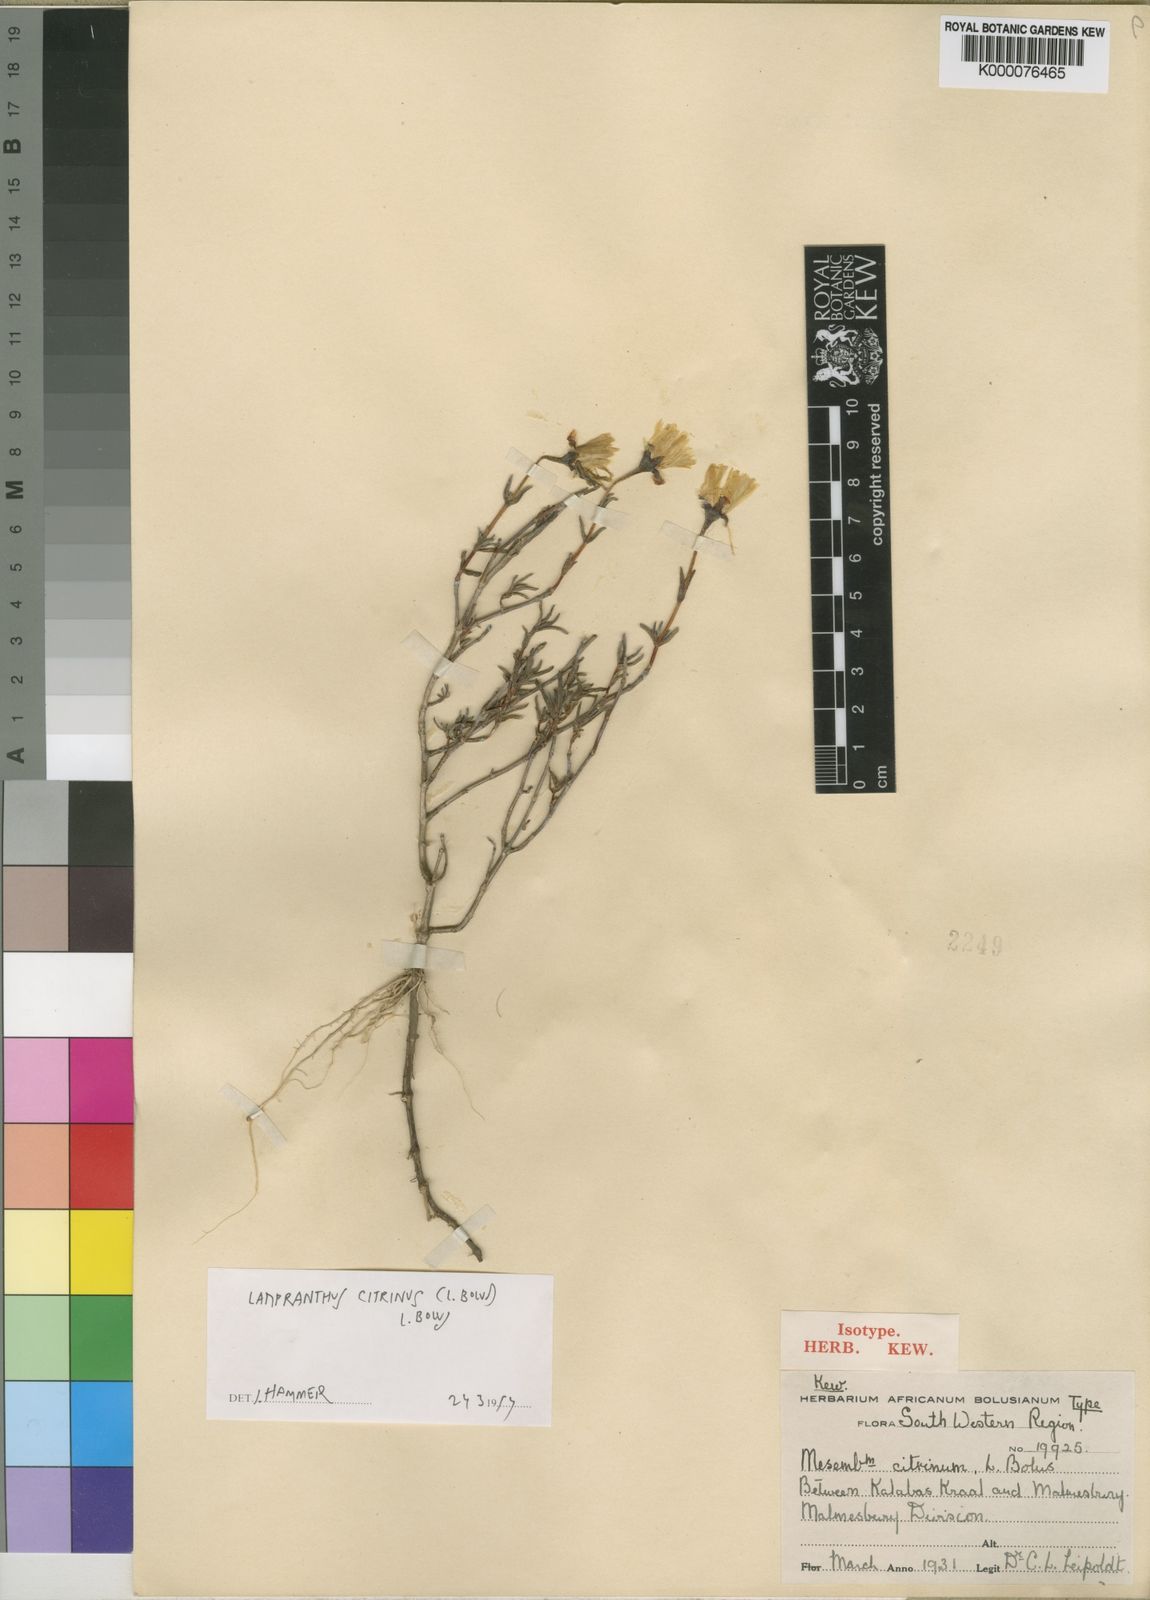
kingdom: Plantae
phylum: Tracheophyta
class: Magnoliopsida
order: Caryophyllales
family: Aizoaceae
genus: Lampranthus
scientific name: Lampranthus citrinus
